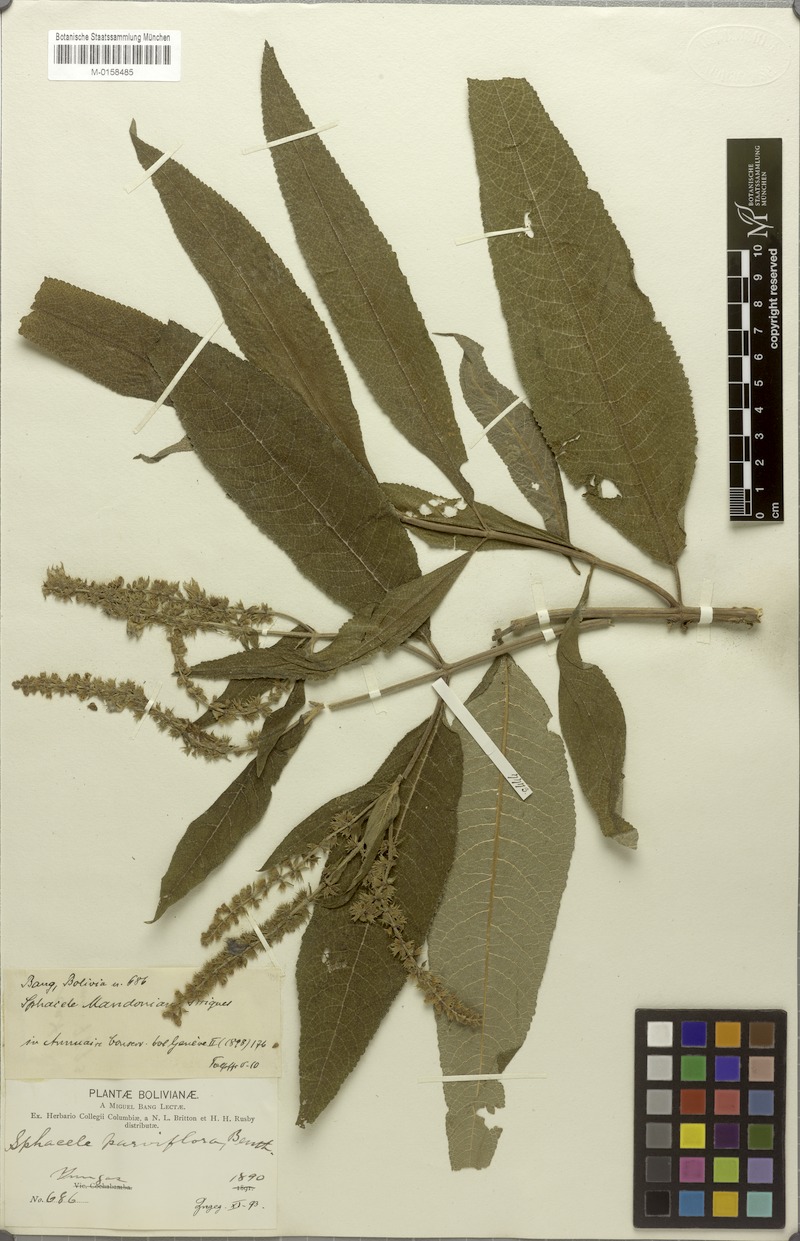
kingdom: Plantae
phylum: Tracheophyta
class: Magnoliopsida
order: Lamiales
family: Lamiaceae
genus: Lepechinia
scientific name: Lepechinia vesiculosa
